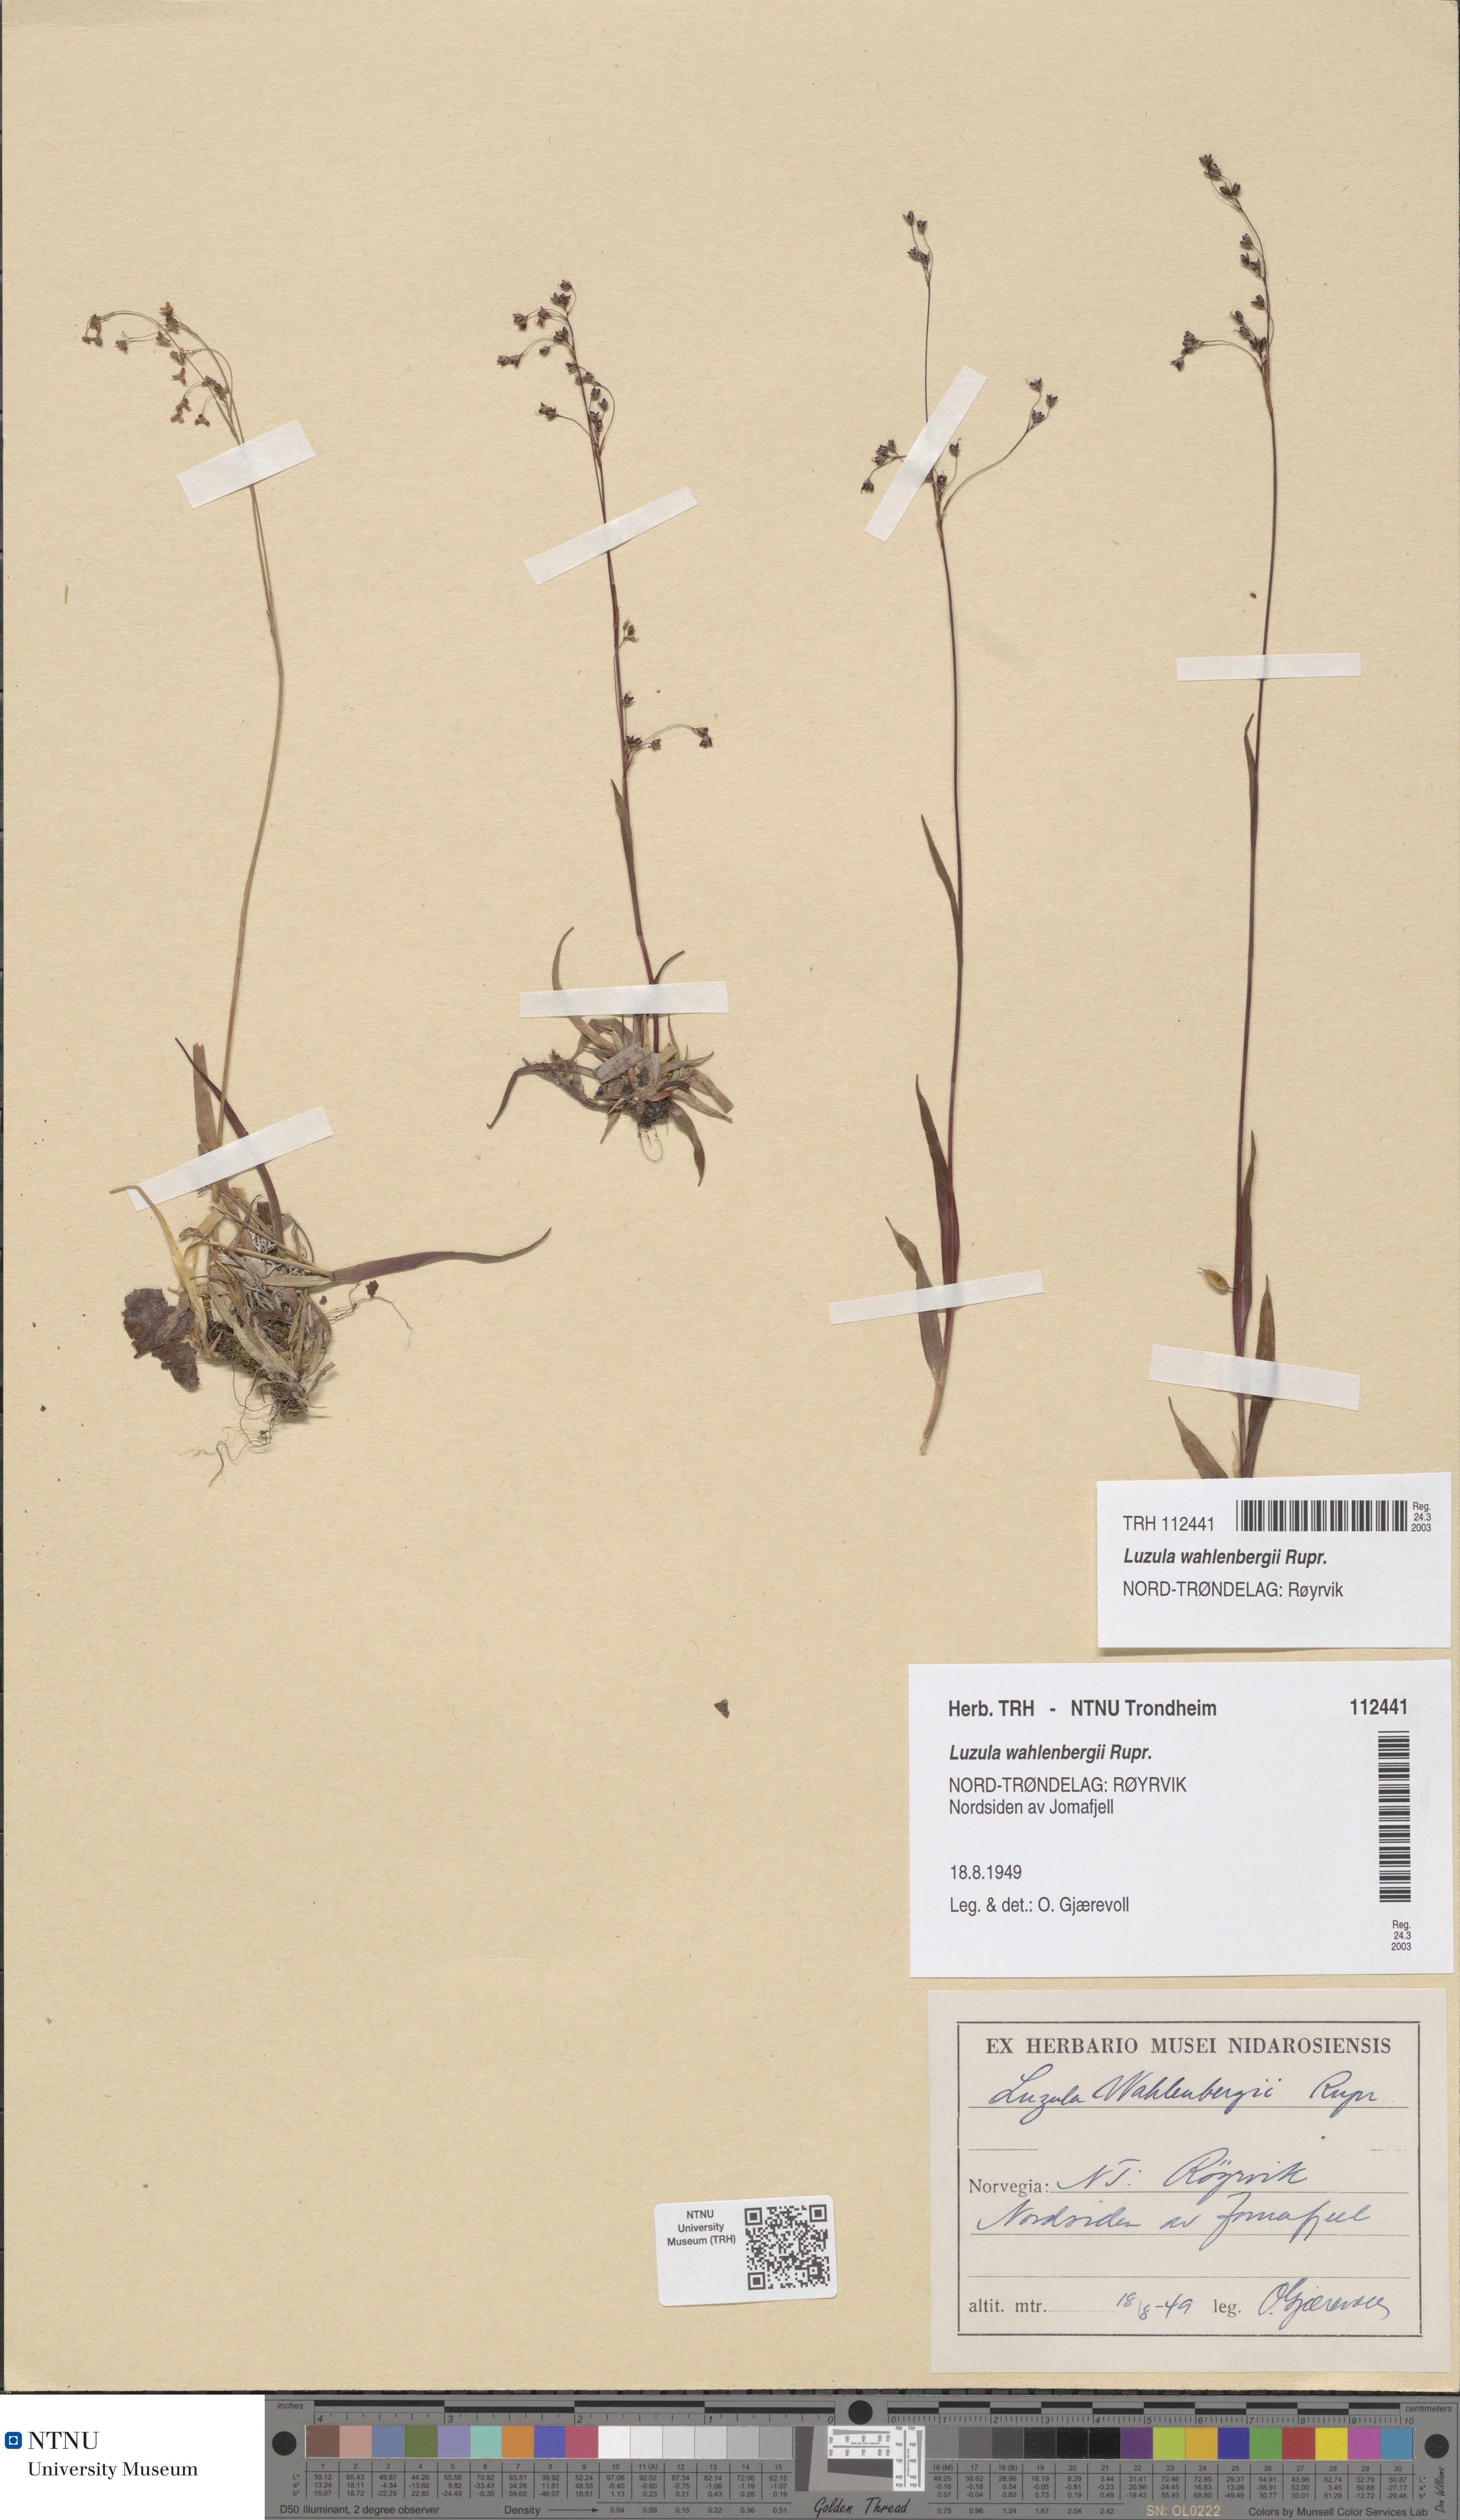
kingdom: Plantae
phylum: Tracheophyta
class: Liliopsida
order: Poales
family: Juncaceae
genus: Luzula
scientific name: Luzula wahlenbergii
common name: Wahlenberg's wood-rush
